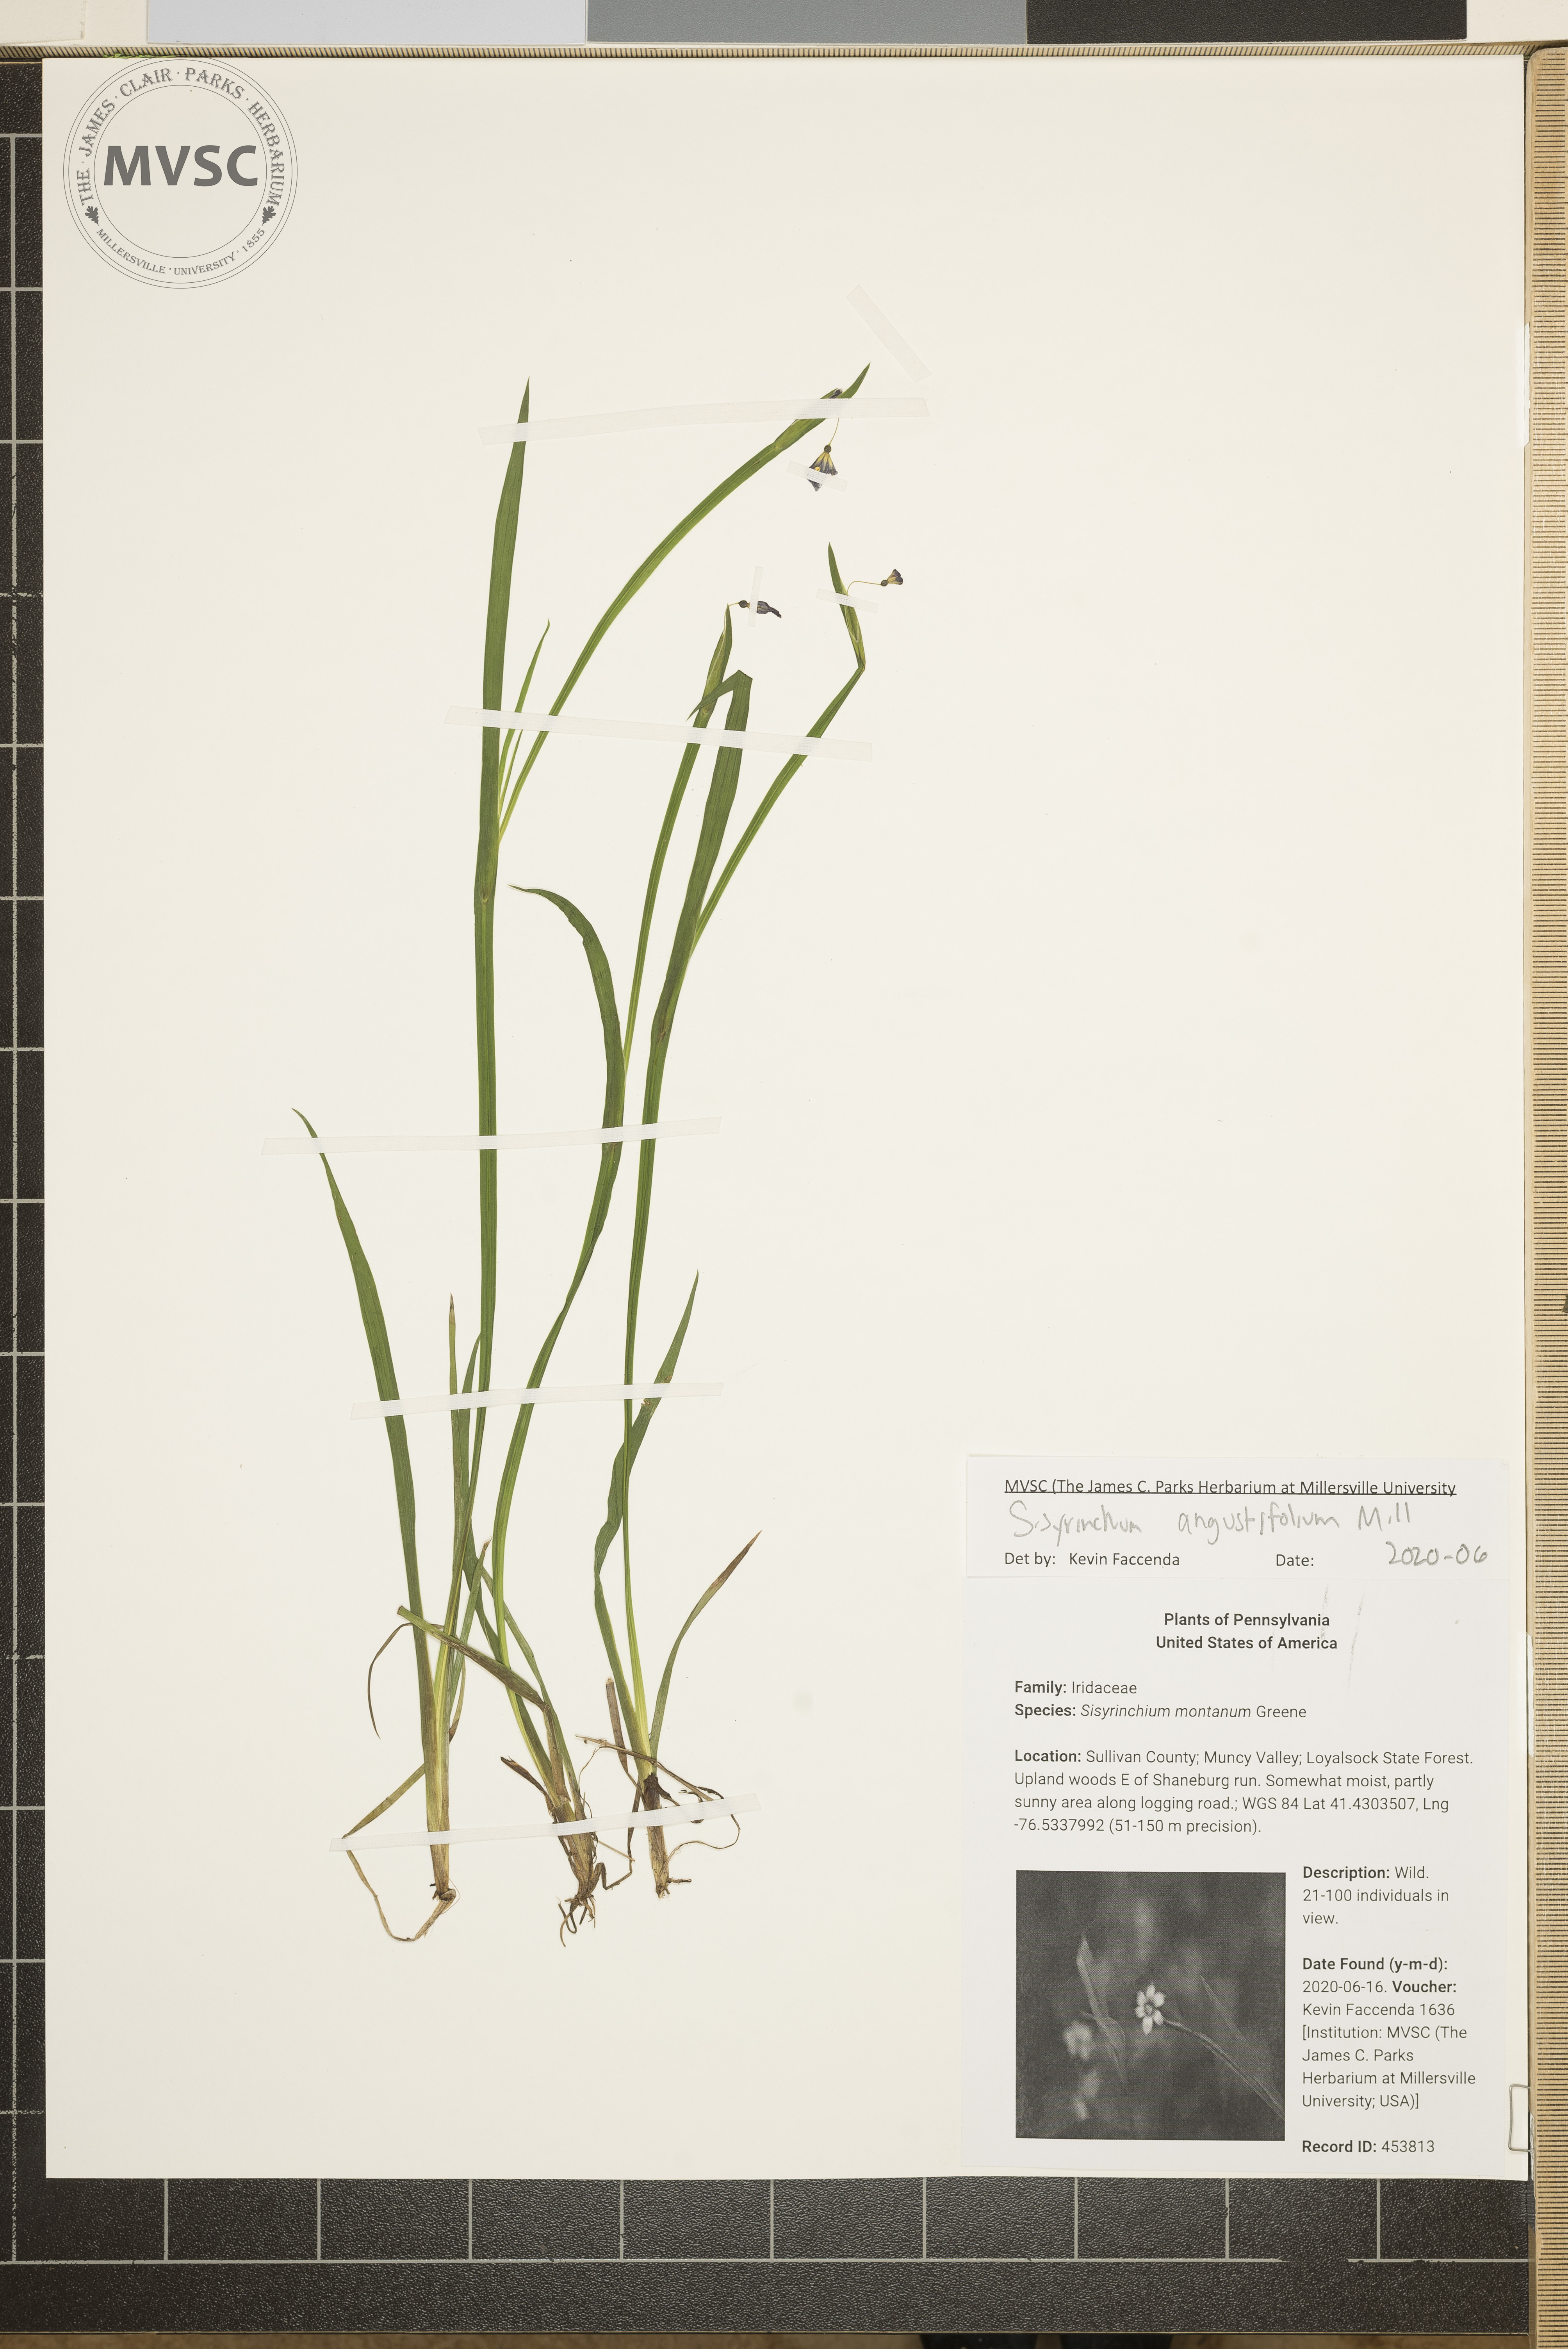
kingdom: Plantae
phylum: Tracheophyta
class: Liliopsida
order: Asparagales
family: Iridaceae
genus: Sisyrinchium
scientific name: Sisyrinchium angustifolium
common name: Narrow-leaf blue-eyed-grass
